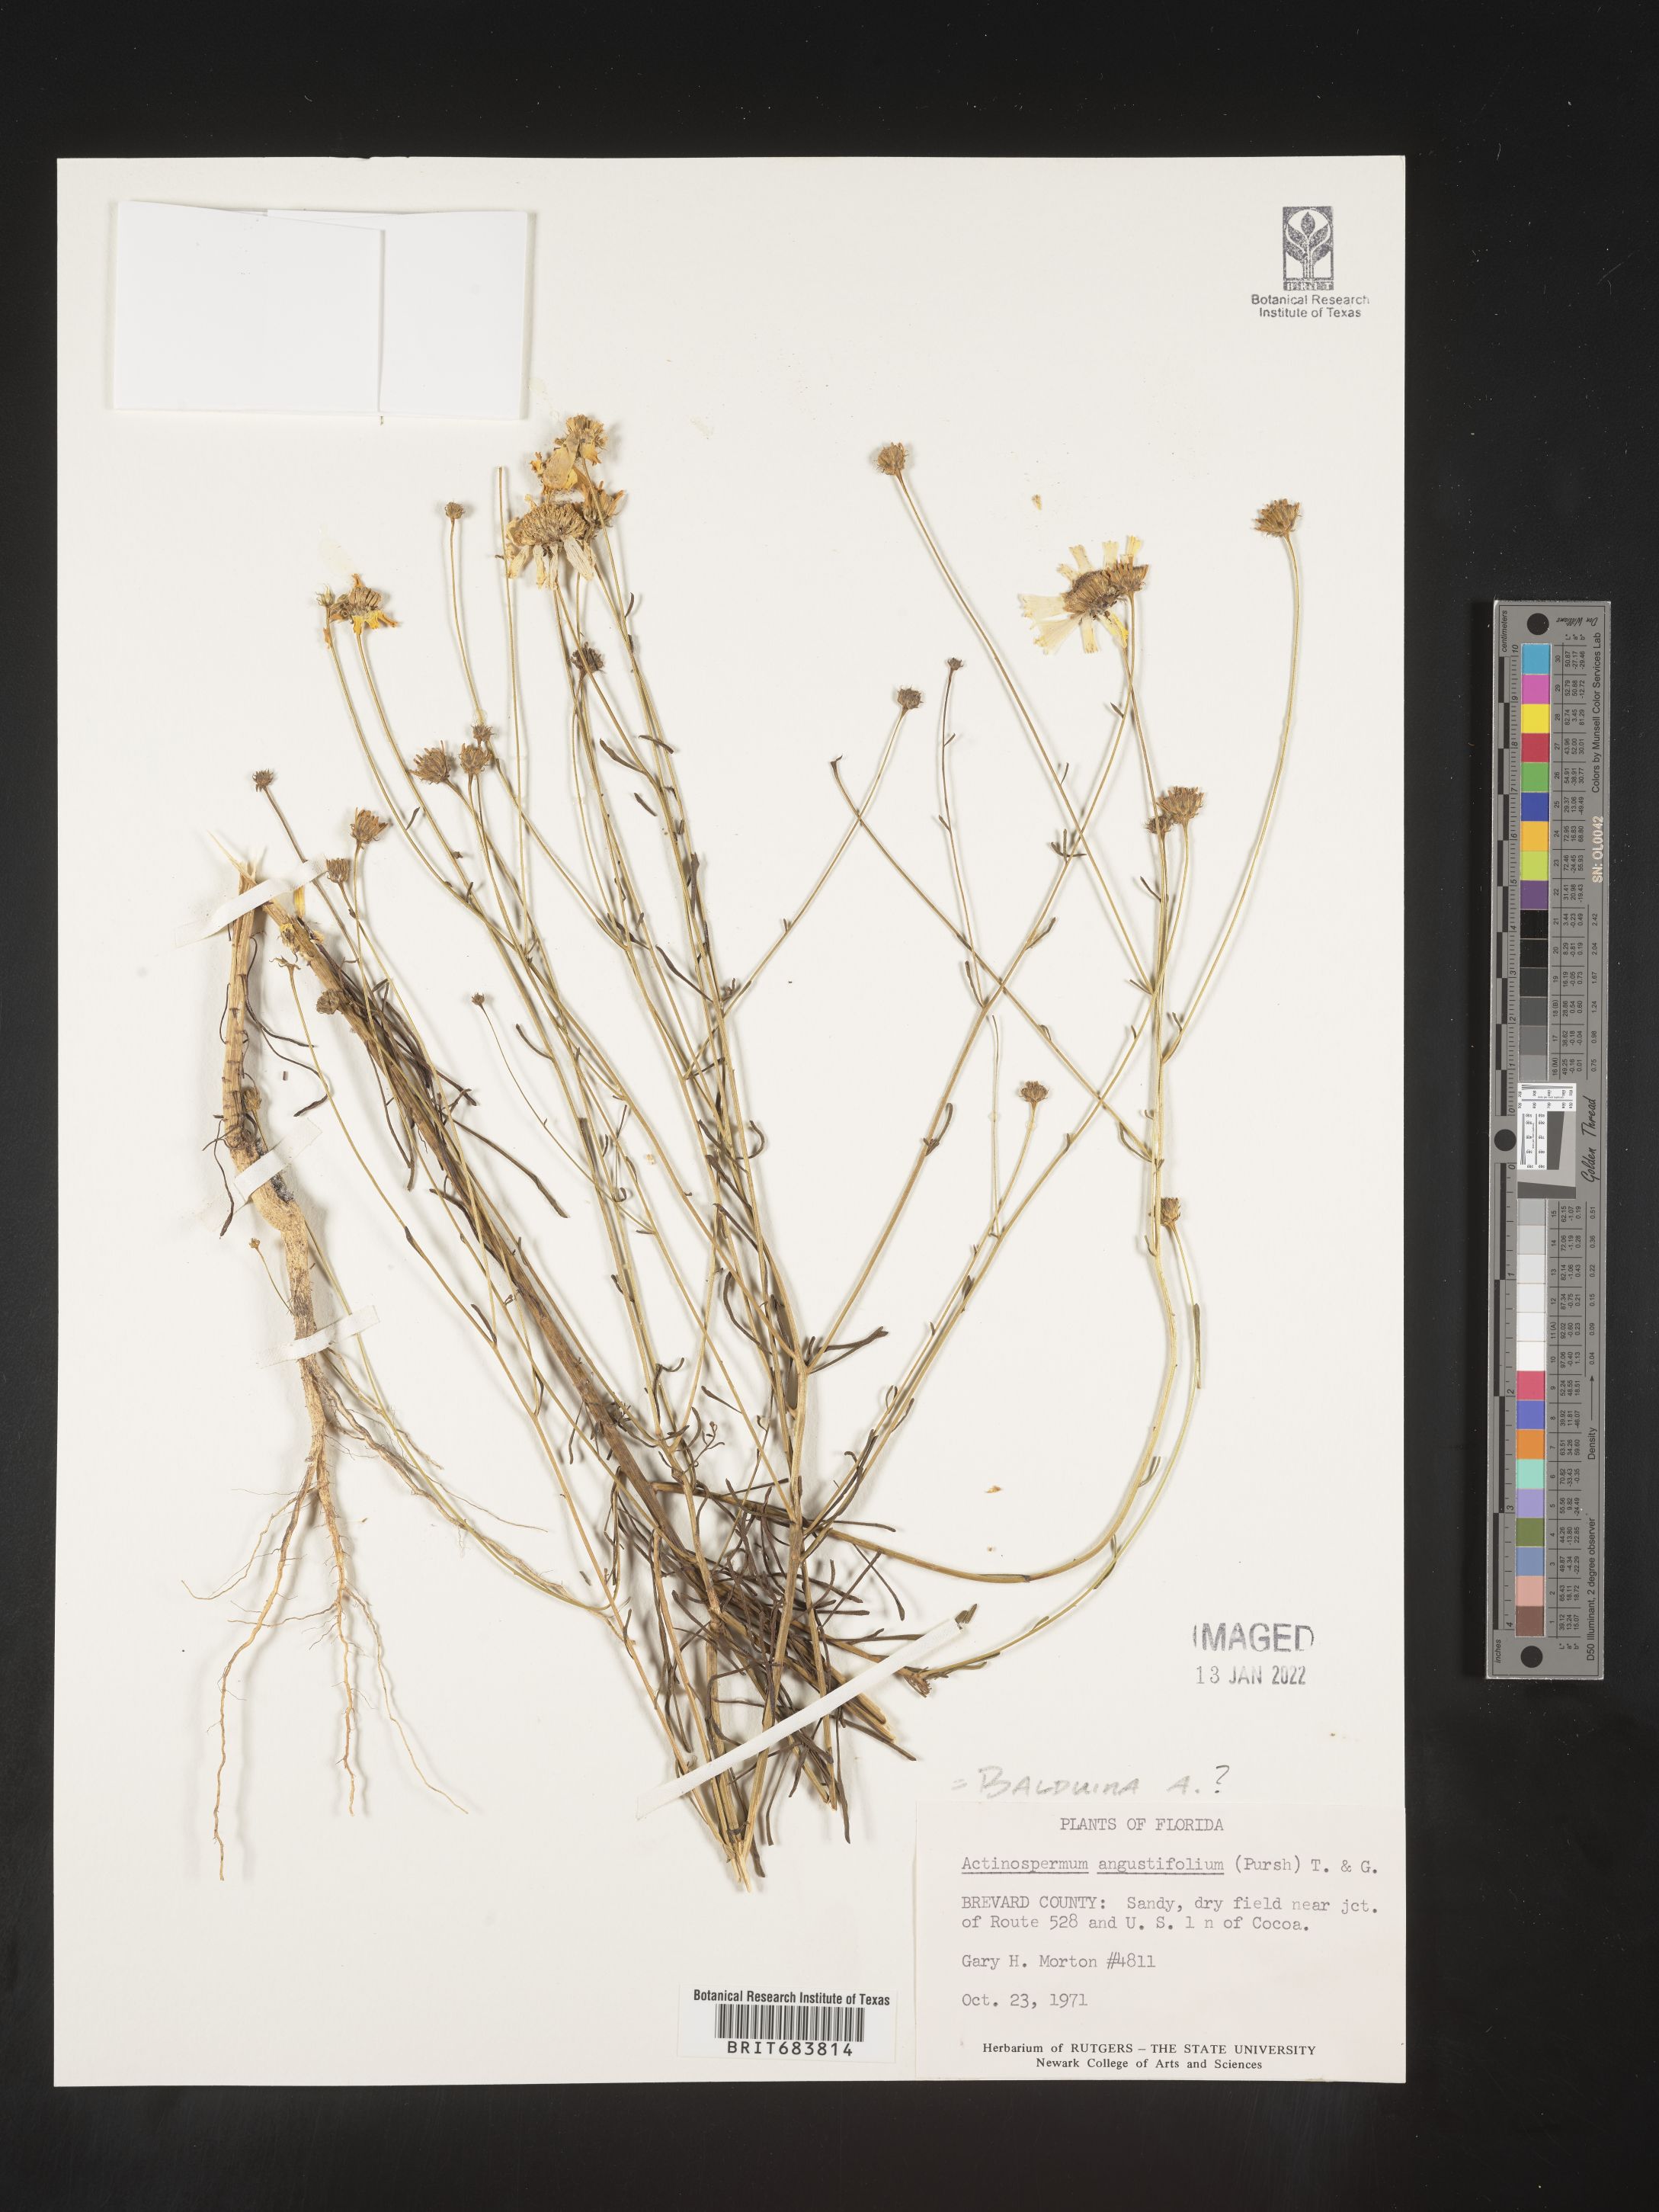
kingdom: Plantae
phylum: Tracheophyta
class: Magnoliopsida
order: Asterales
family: Asteraceae
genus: Balduina
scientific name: Balduina angustifolia
